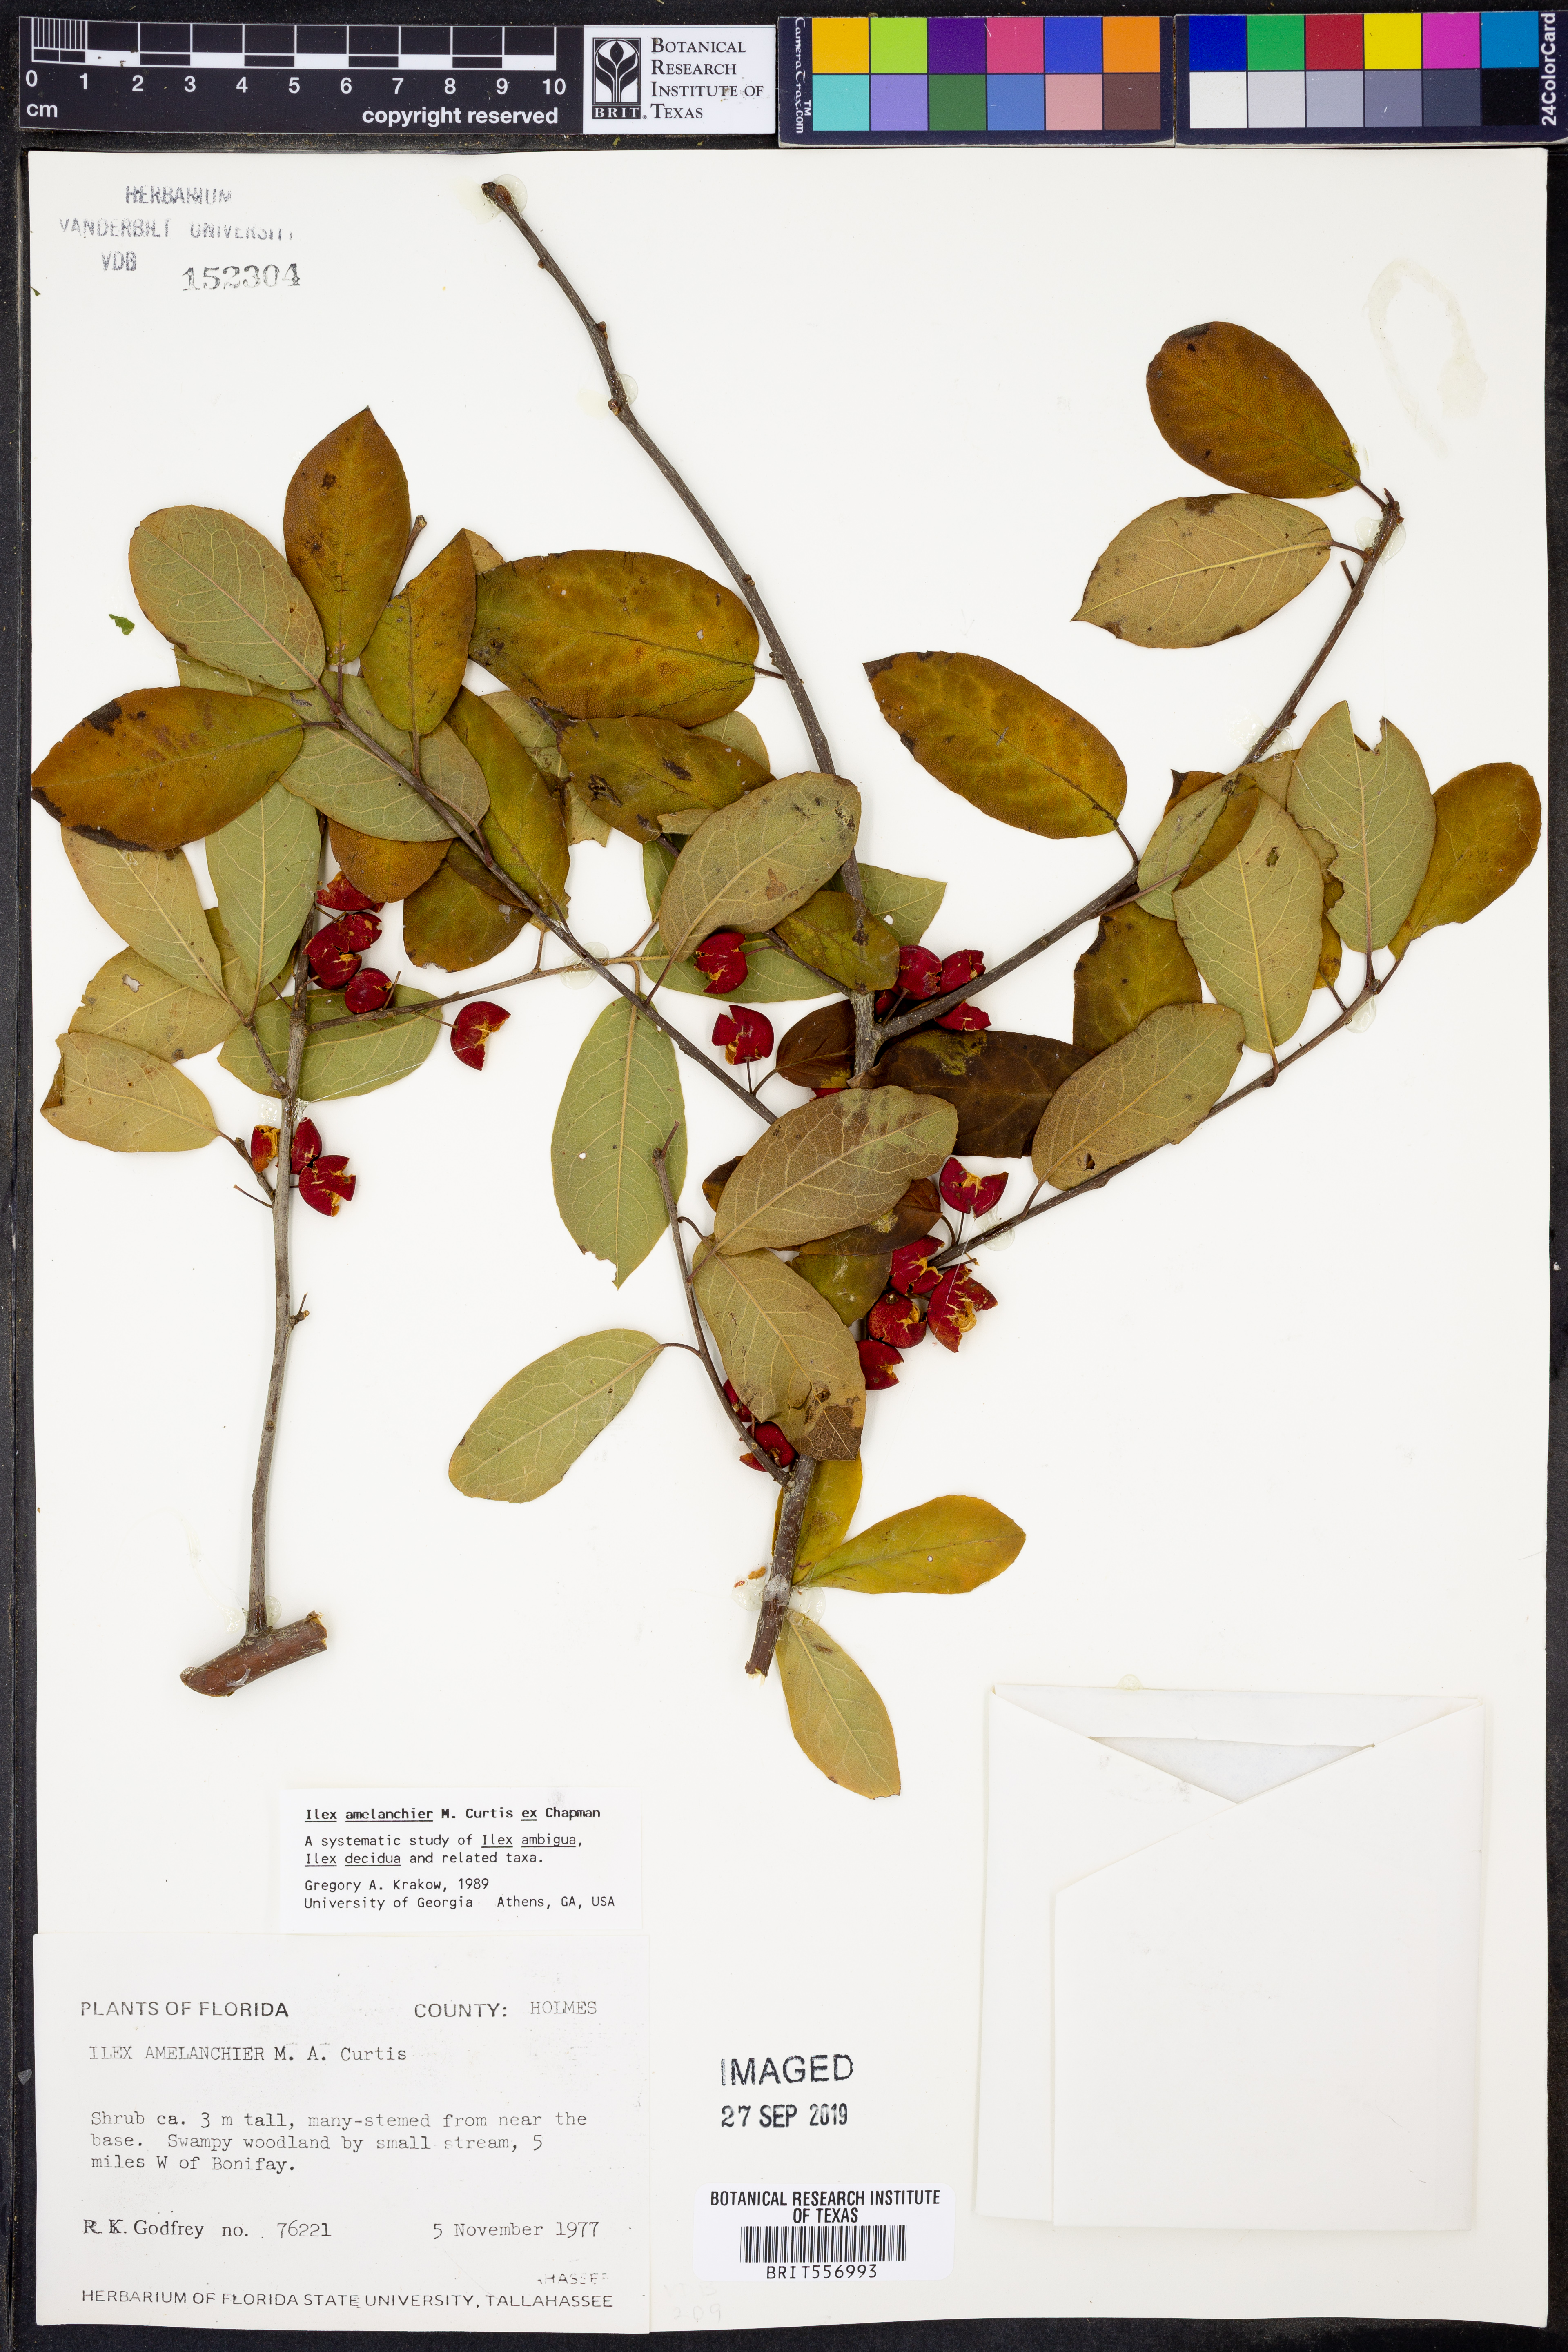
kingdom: Plantae
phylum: Tracheophyta
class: Magnoliopsida
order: Aquifoliales
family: Aquifoliaceae
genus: Ilex
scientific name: Ilex amelanchier
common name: Sarvis holly
